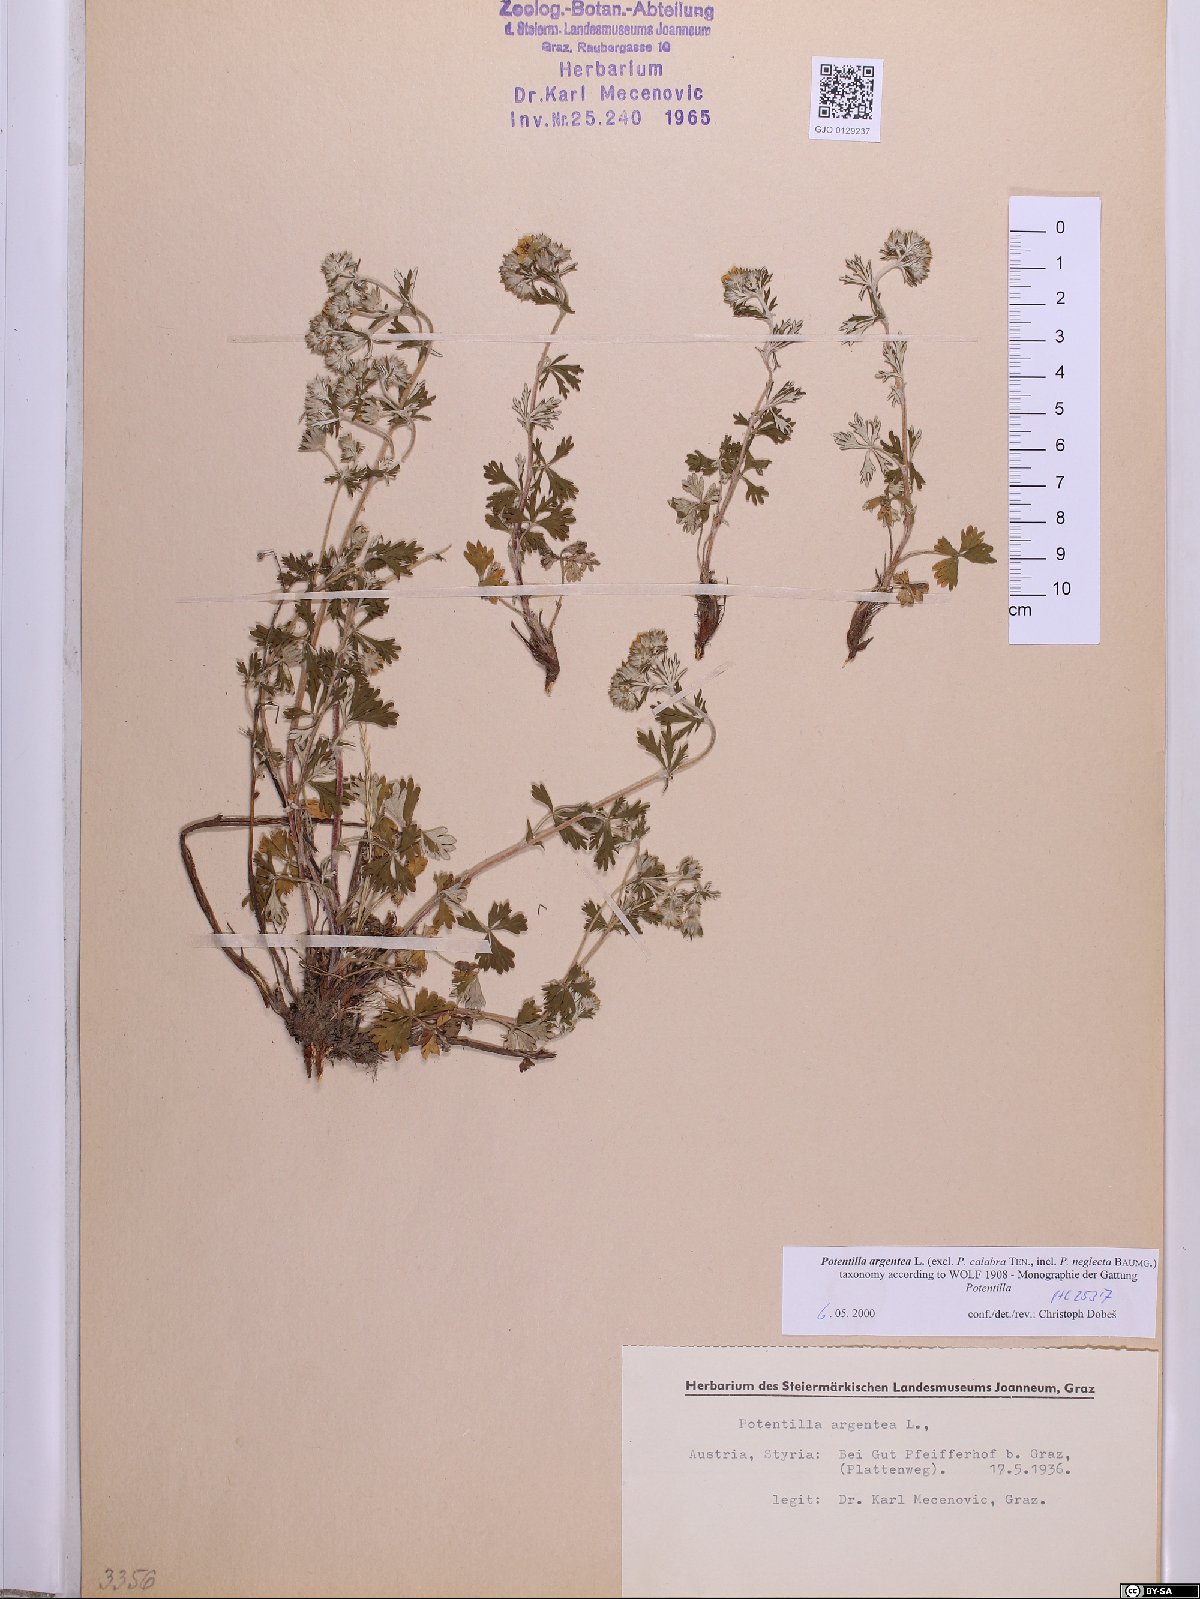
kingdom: Plantae
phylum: Tracheophyta
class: Magnoliopsida
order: Rosales
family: Rosaceae
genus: Potentilla
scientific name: Potentilla argentea
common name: Hoary cinquefoil
